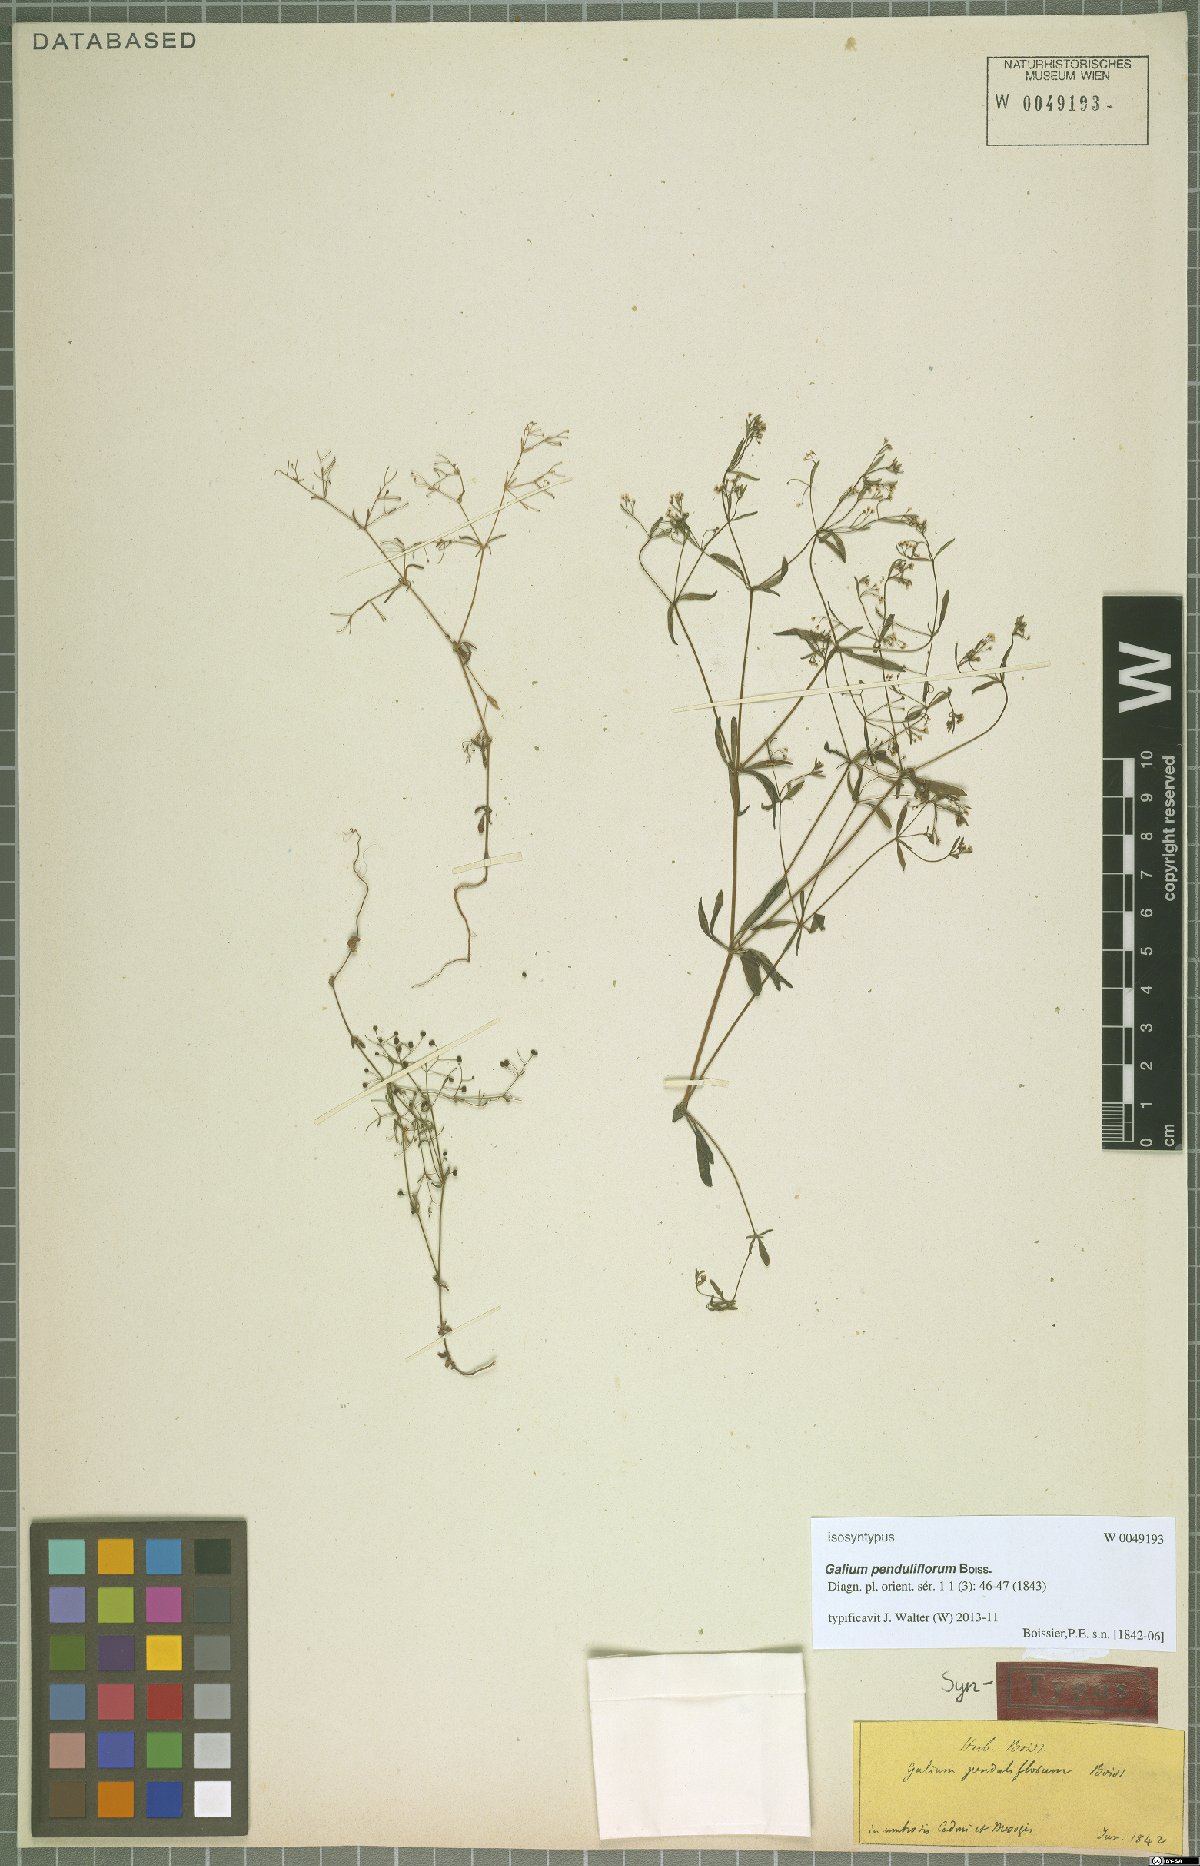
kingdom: Plantae
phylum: Tracheophyta
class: Magnoliopsida
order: Gentianales
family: Rubiaceae
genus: Galium
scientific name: Galium penduliflorum
